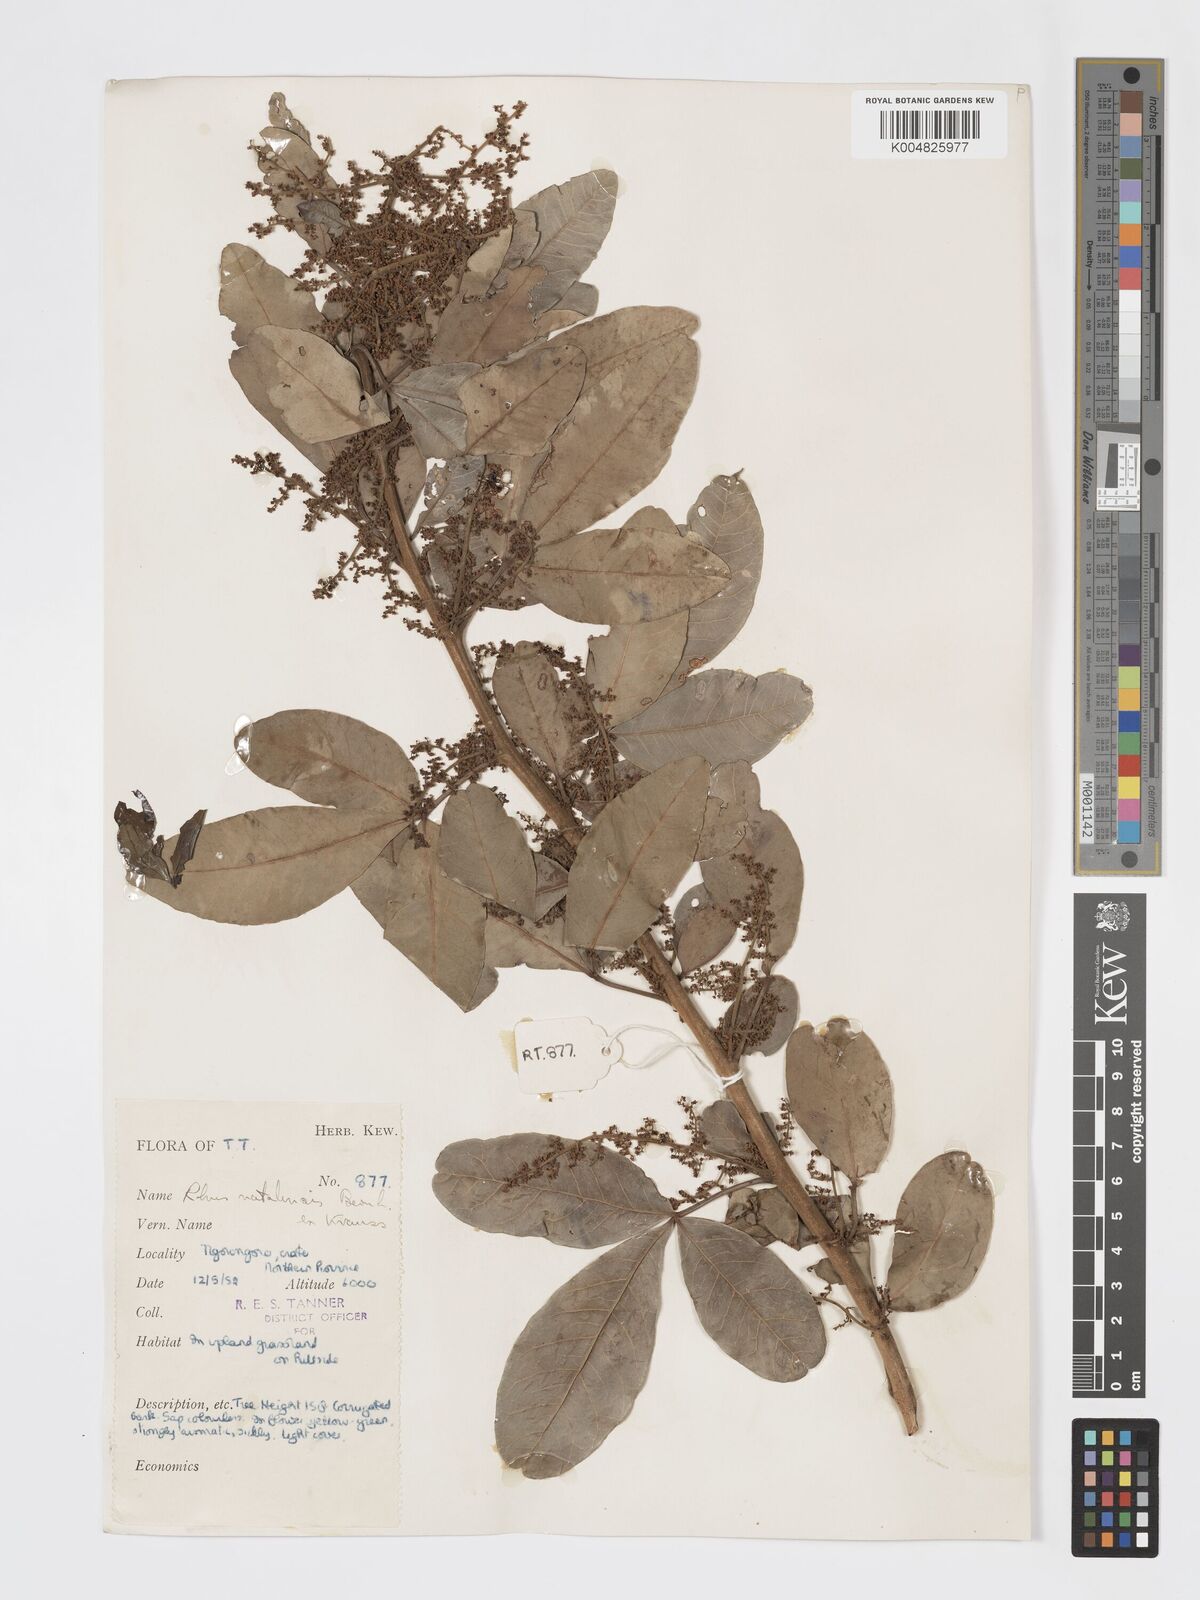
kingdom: Plantae
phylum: Tracheophyta
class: Magnoliopsida
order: Sapindales
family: Anacardiaceae
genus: Searsia
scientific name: Searsia natalensis
